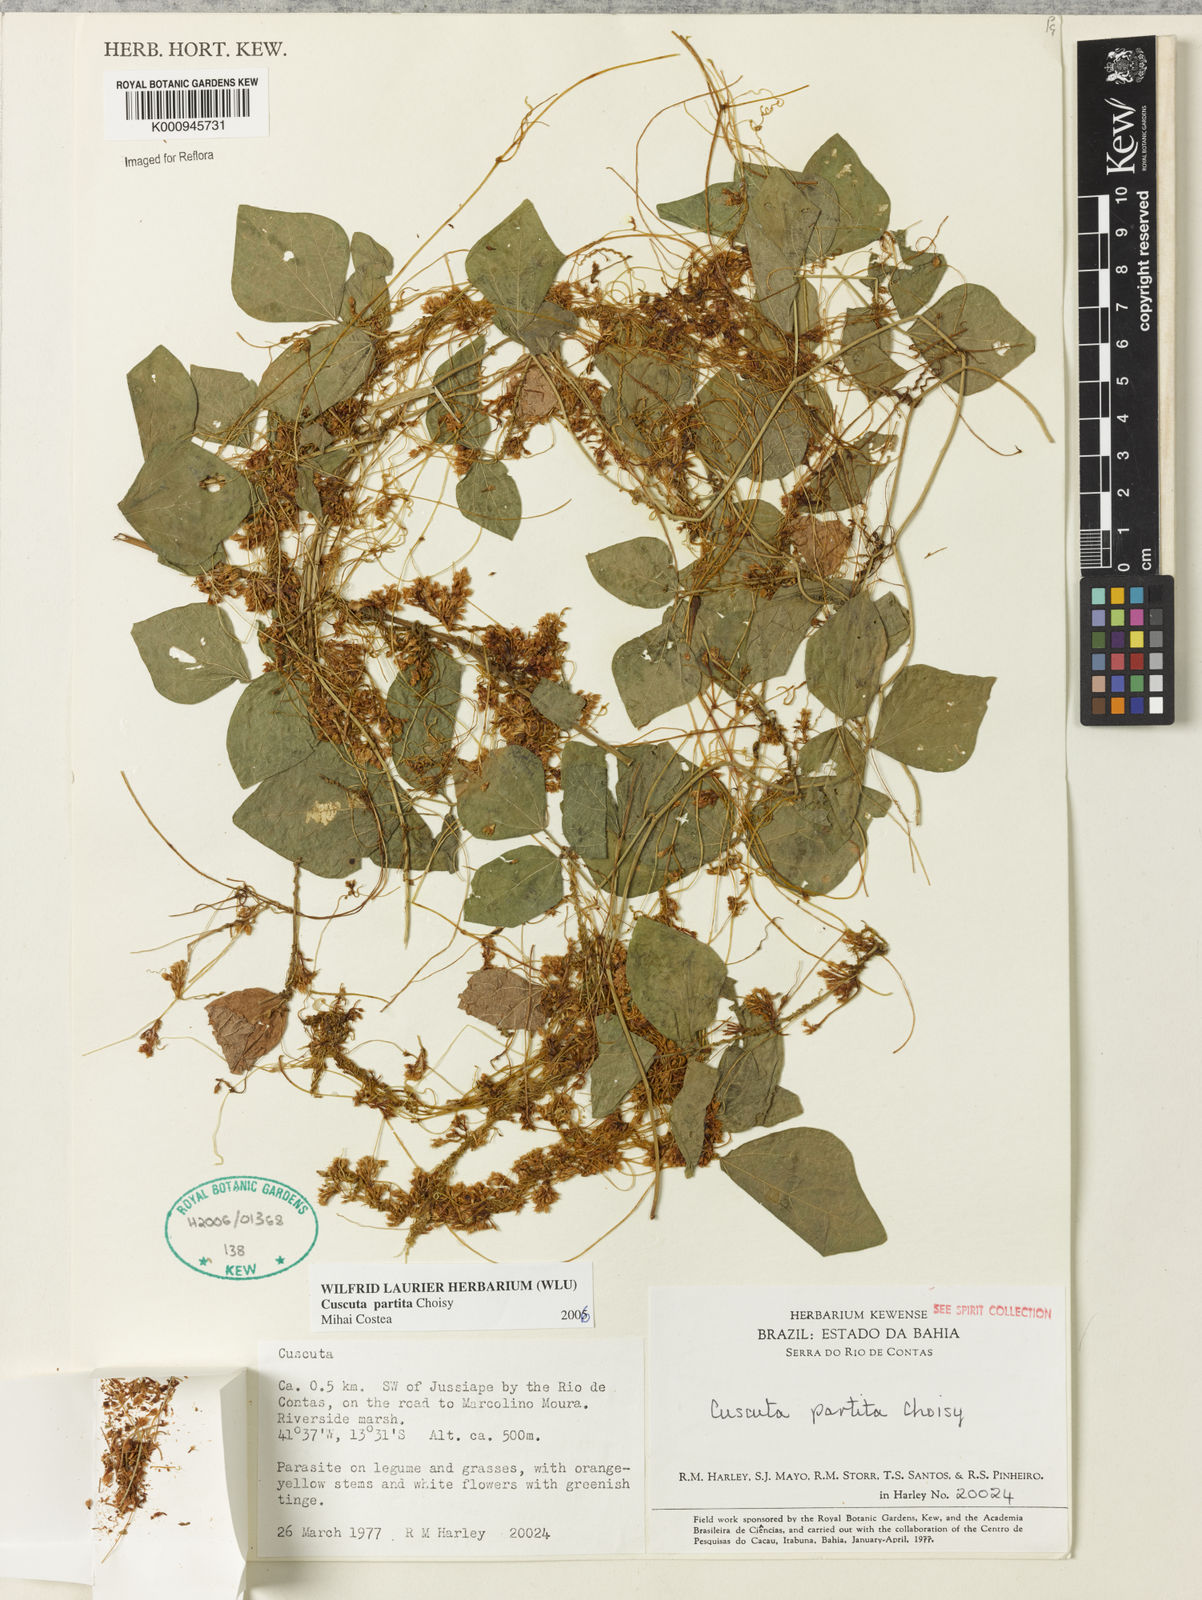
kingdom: Plantae
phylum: Tracheophyta
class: Magnoliopsida
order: Solanales
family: Convolvulaceae
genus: Cuscuta
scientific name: Cuscuta partita
